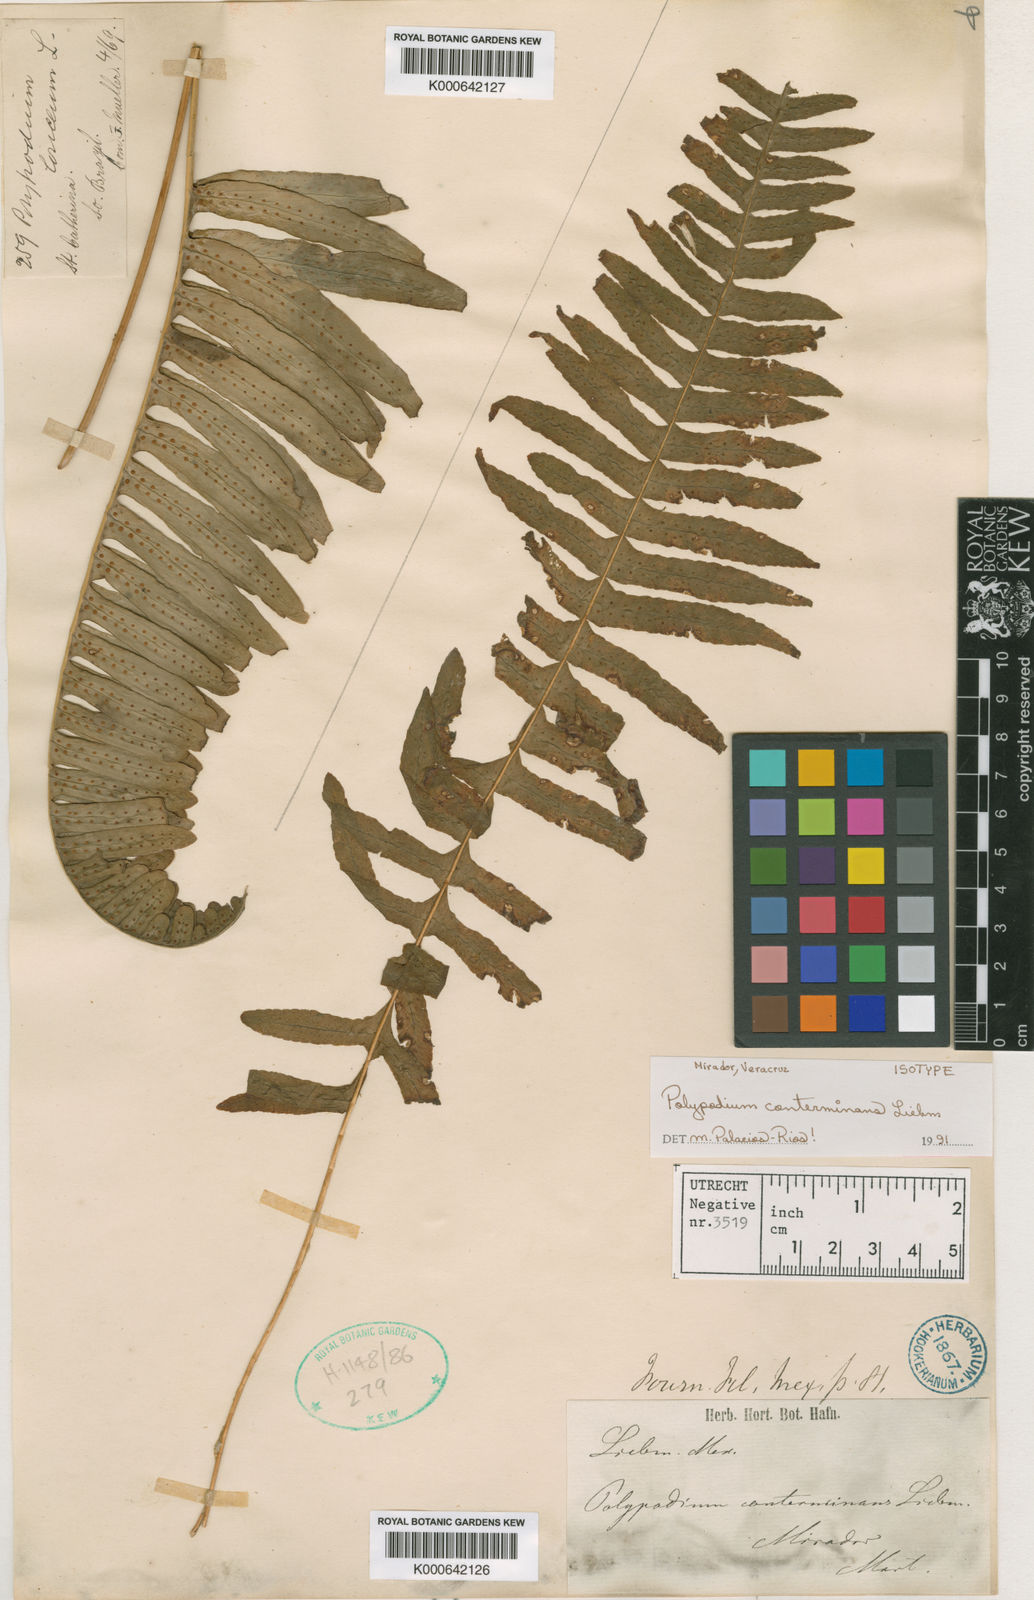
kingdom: Plantae
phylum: Tracheophyta
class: Polypodiopsida
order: Polypodiales
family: Polypodiaceae
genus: Polypodium
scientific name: Polypodium conterminans
